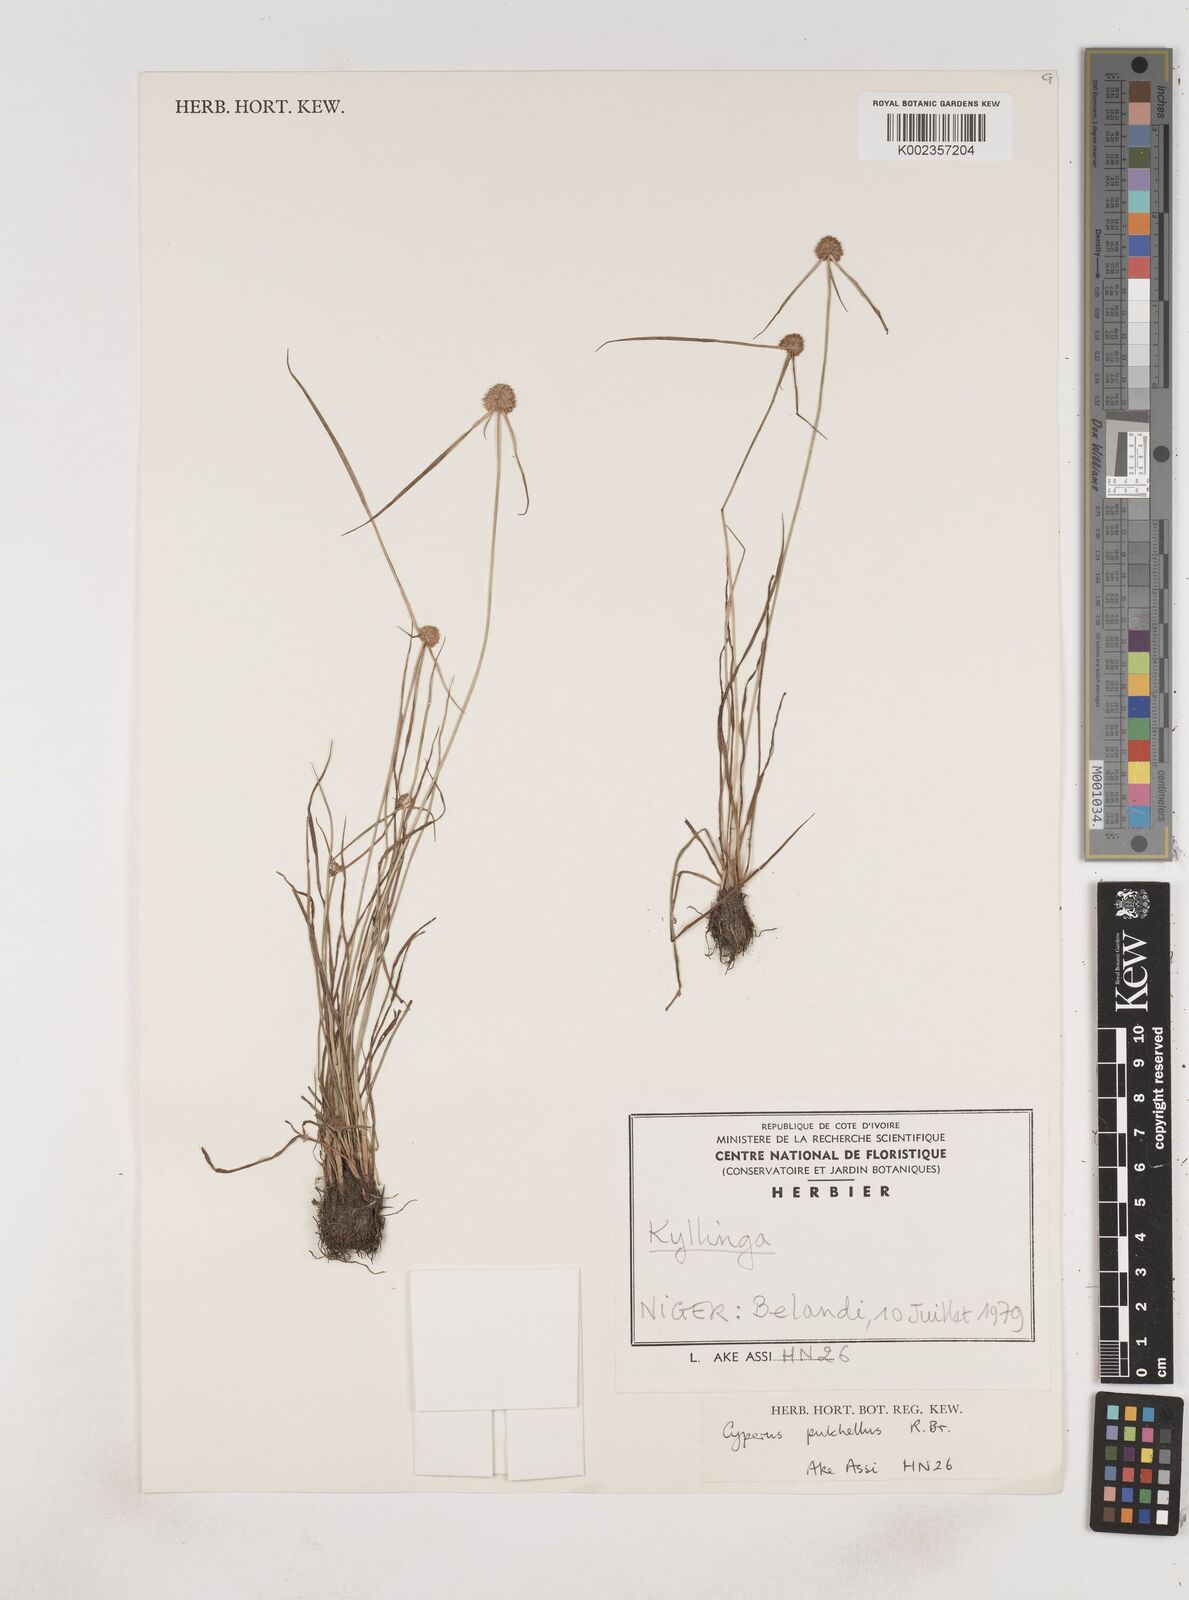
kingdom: Plantae
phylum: Tracheophyta
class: Liliopsida
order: Poales
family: Cyperaceae
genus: Cyperus
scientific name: Cyperus pulchellus
